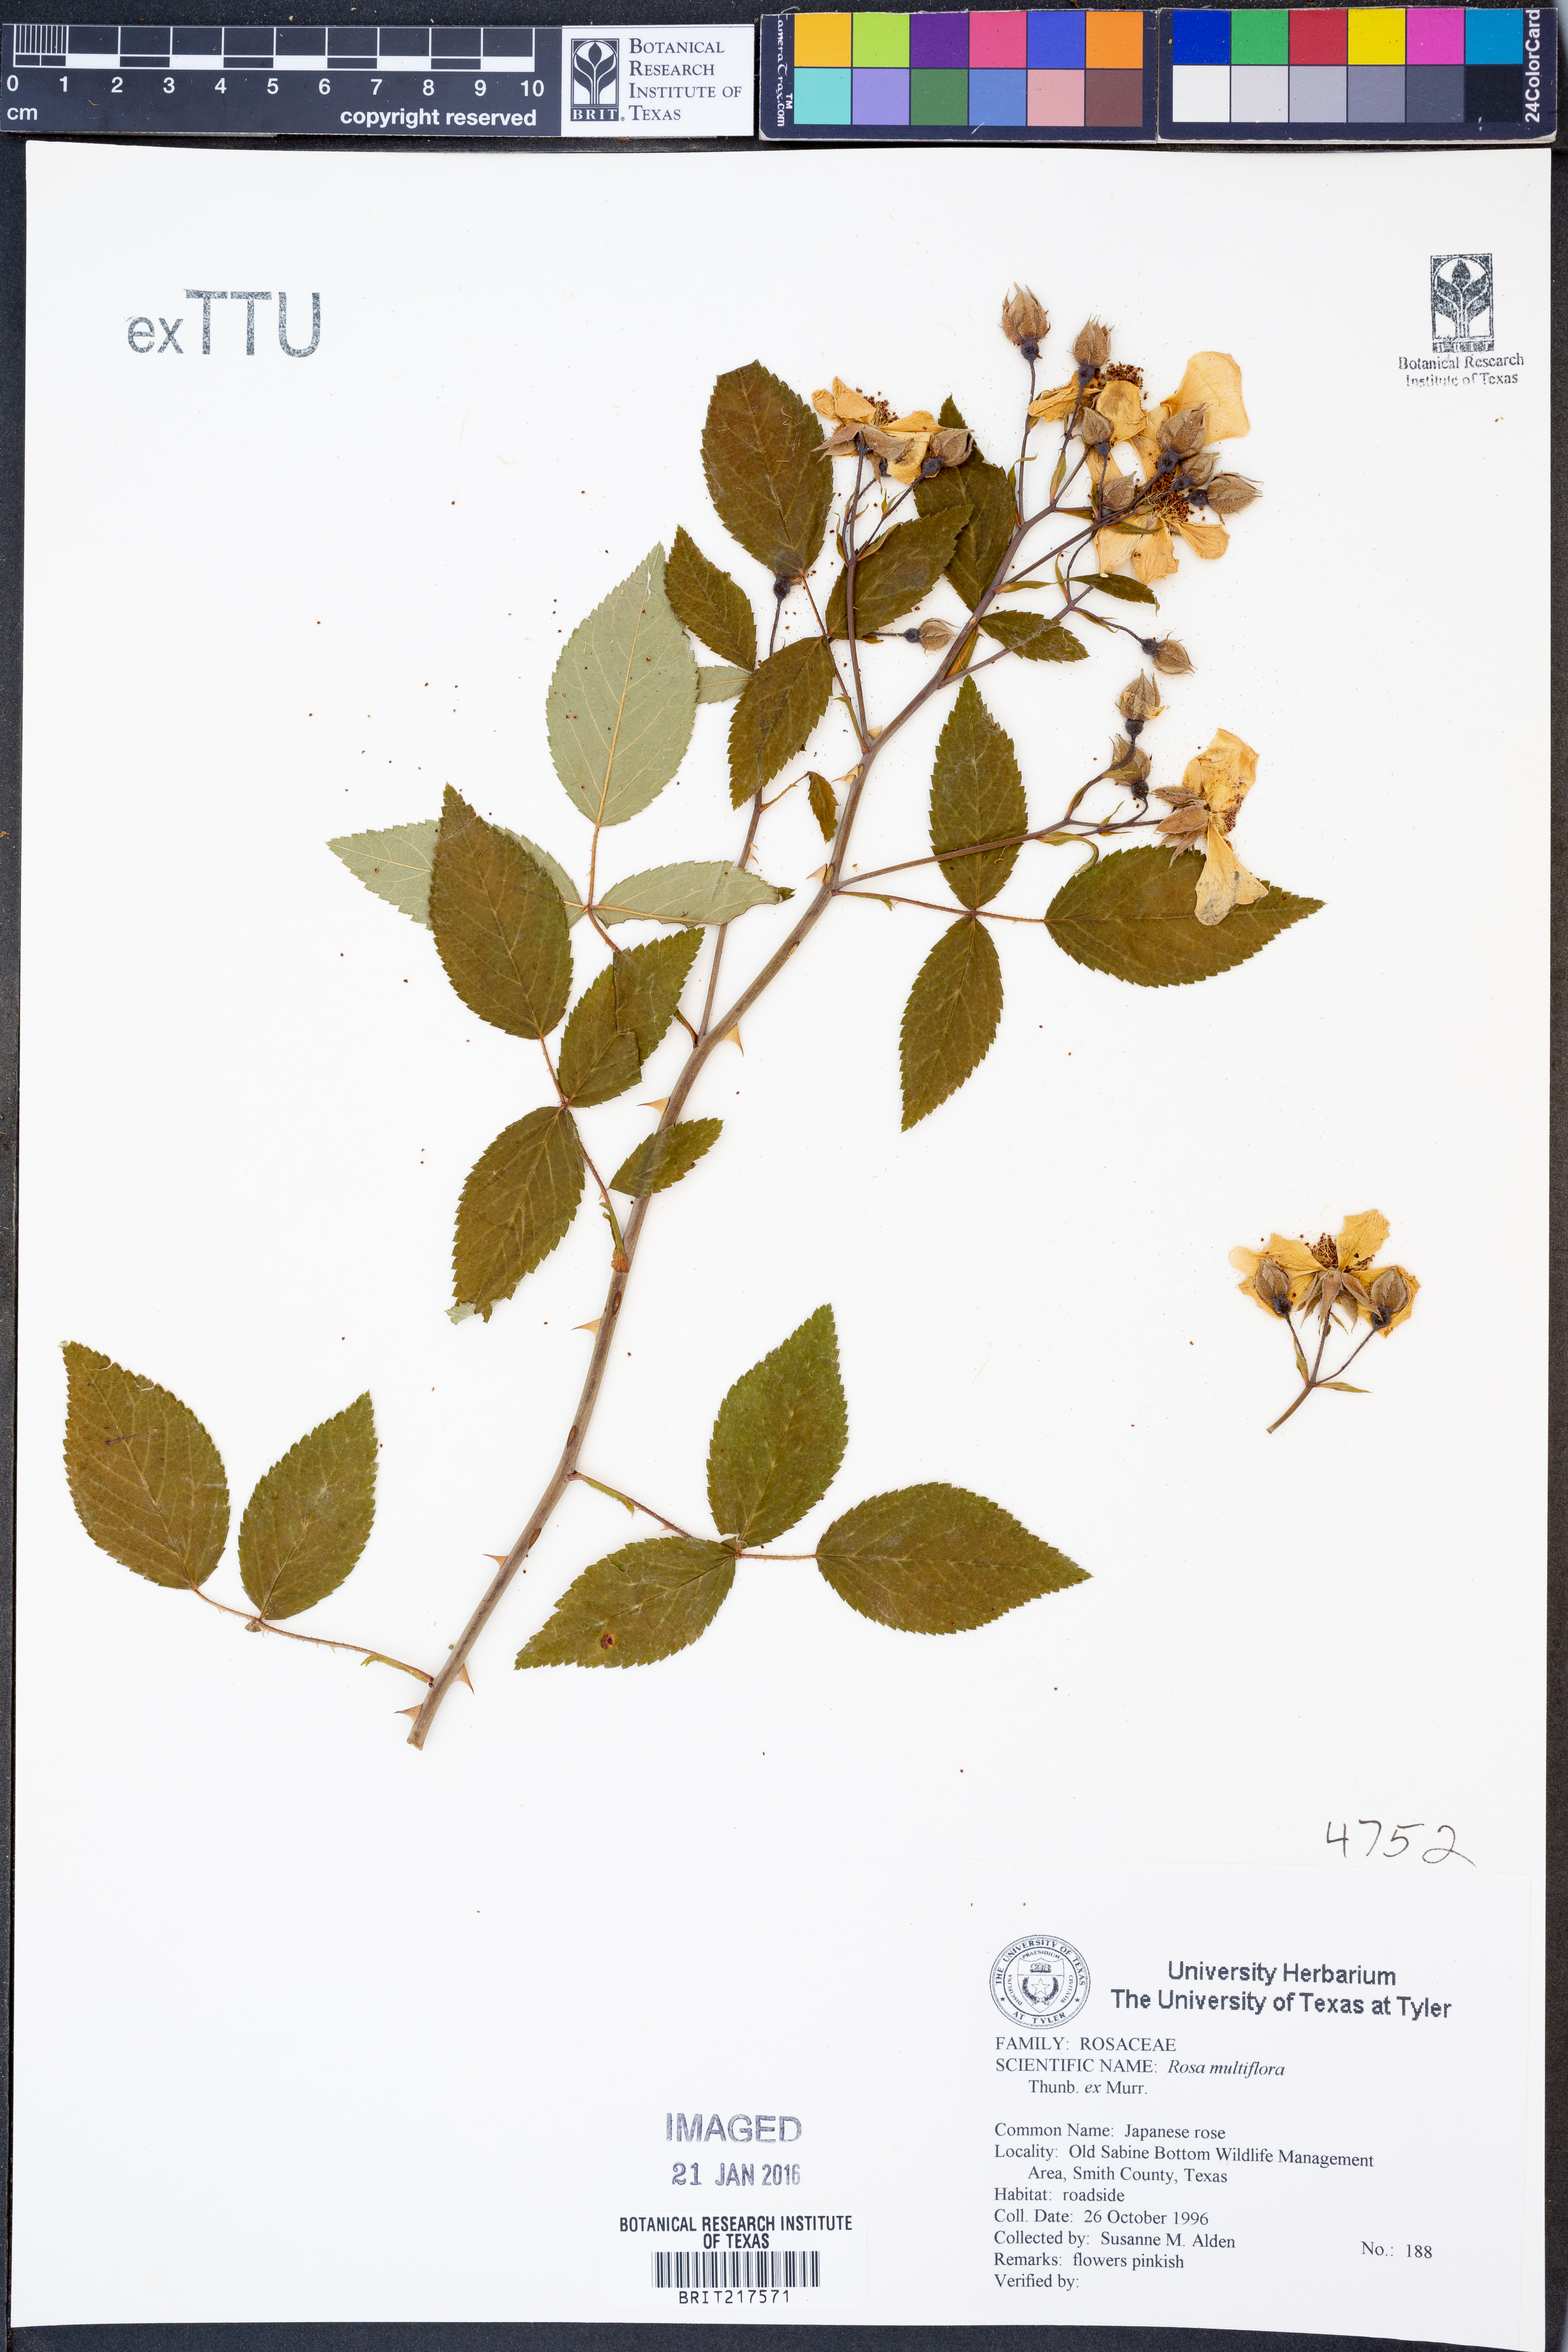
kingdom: Plantae
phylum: Tracheophyta
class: Magnoliopsida
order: Rosales
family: Rosaceae
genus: Rosa
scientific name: Rosa multiflora
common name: Multiflora rose
